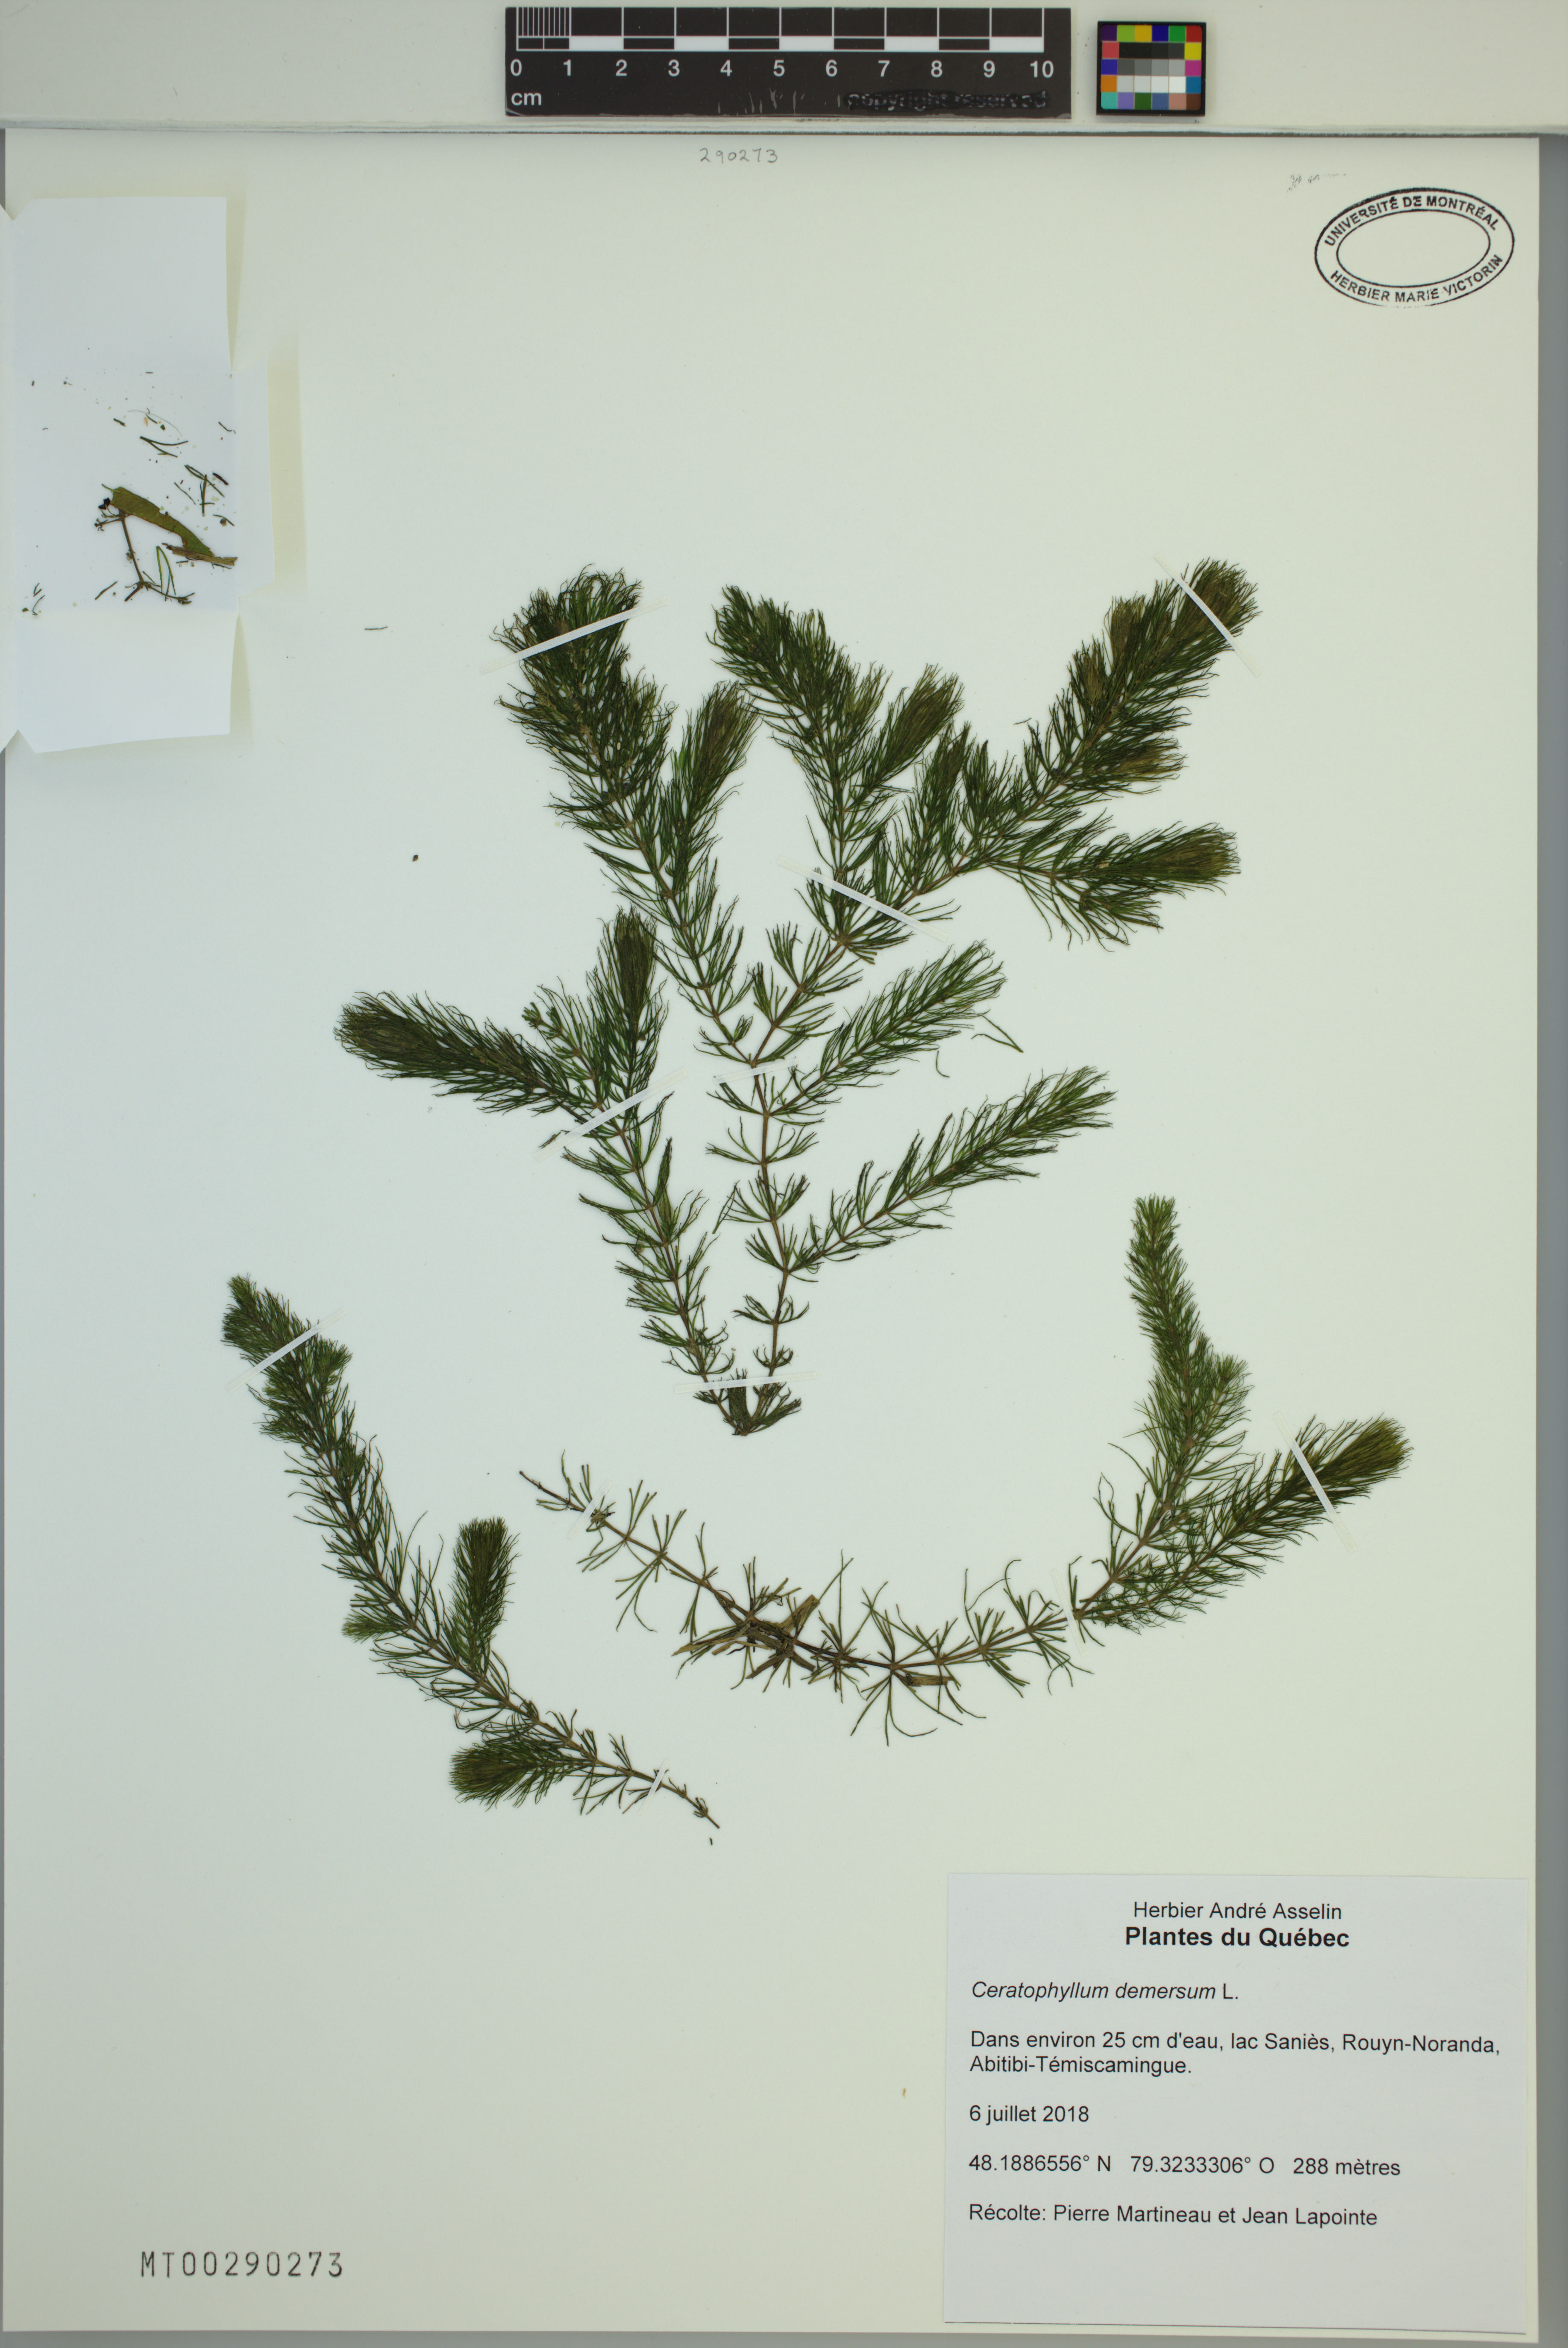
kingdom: Plantae
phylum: Tracheophyta
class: Magnoliopsida
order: Ceratophyllales
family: Ceratophyllaceae
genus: Ceratophyllum
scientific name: Ceratophyllum demersum
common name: Rigid hornwort
